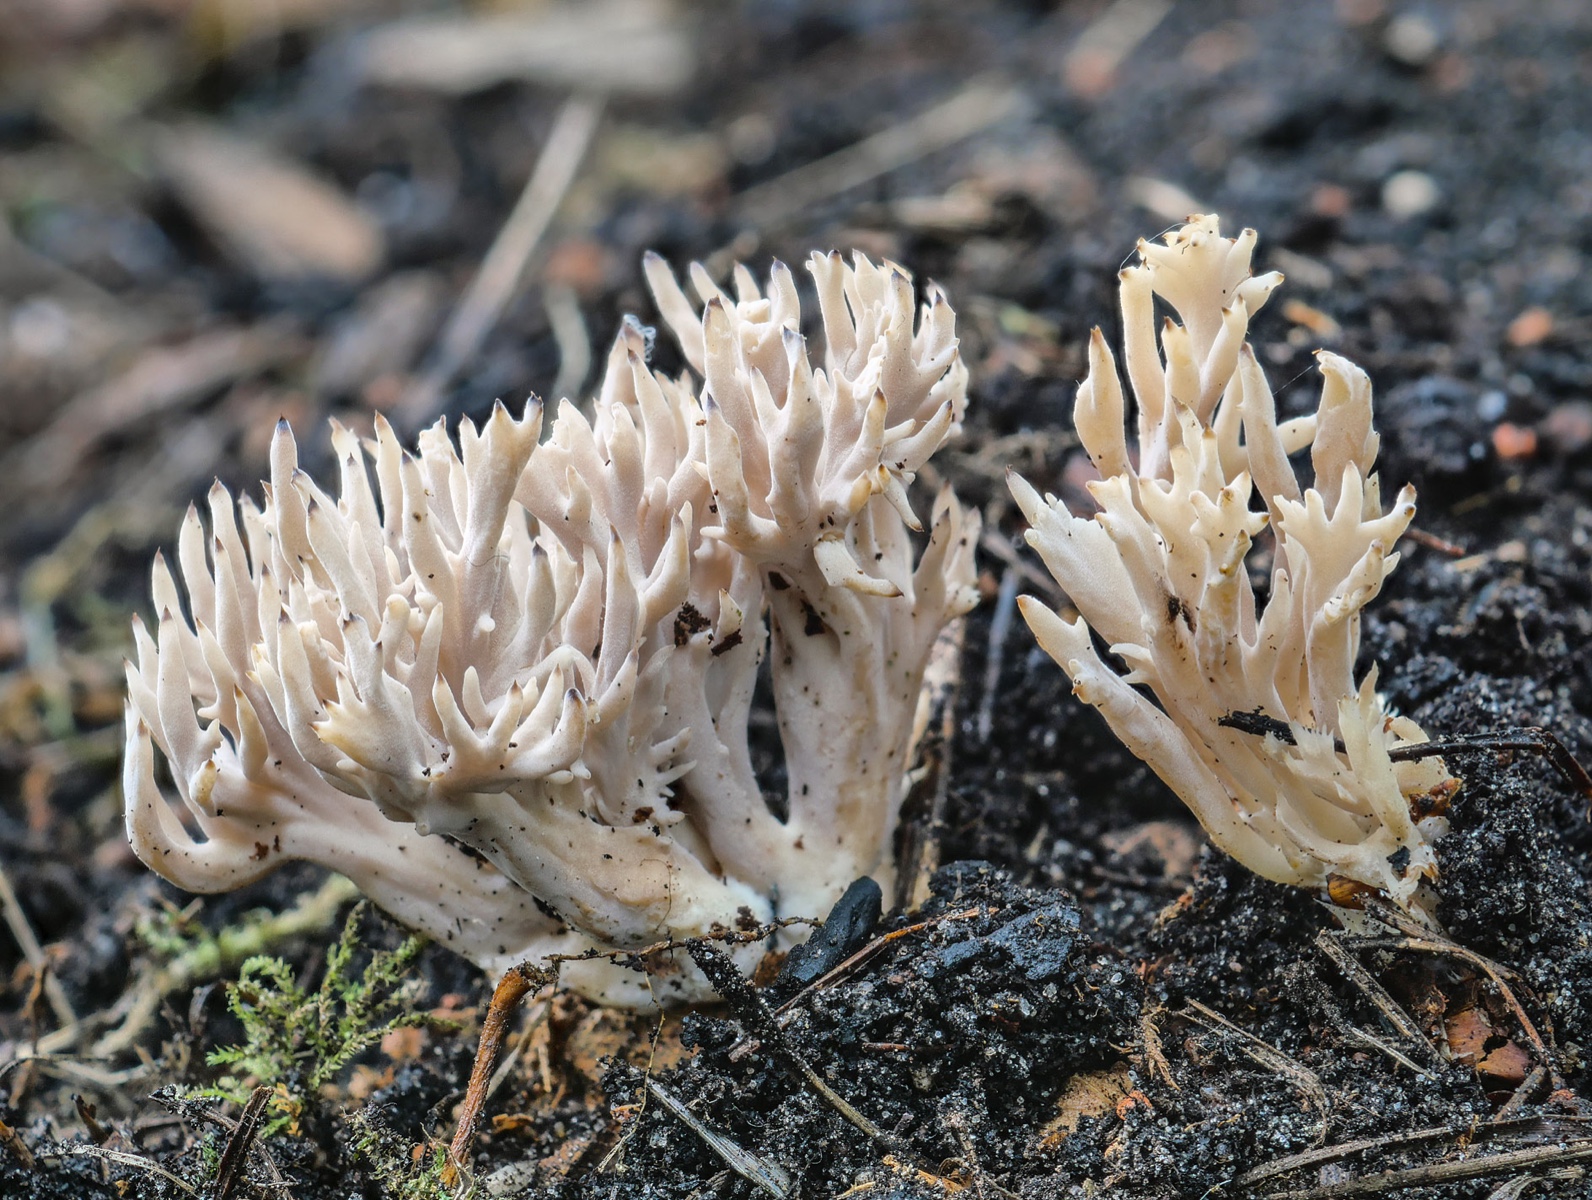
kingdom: Fungi
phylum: Basidiomycota
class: Agaricomycetes
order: Cantharellales
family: Hydnaceae
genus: Clavulina
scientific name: Clavulina incarnata
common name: dunet troldkølle
